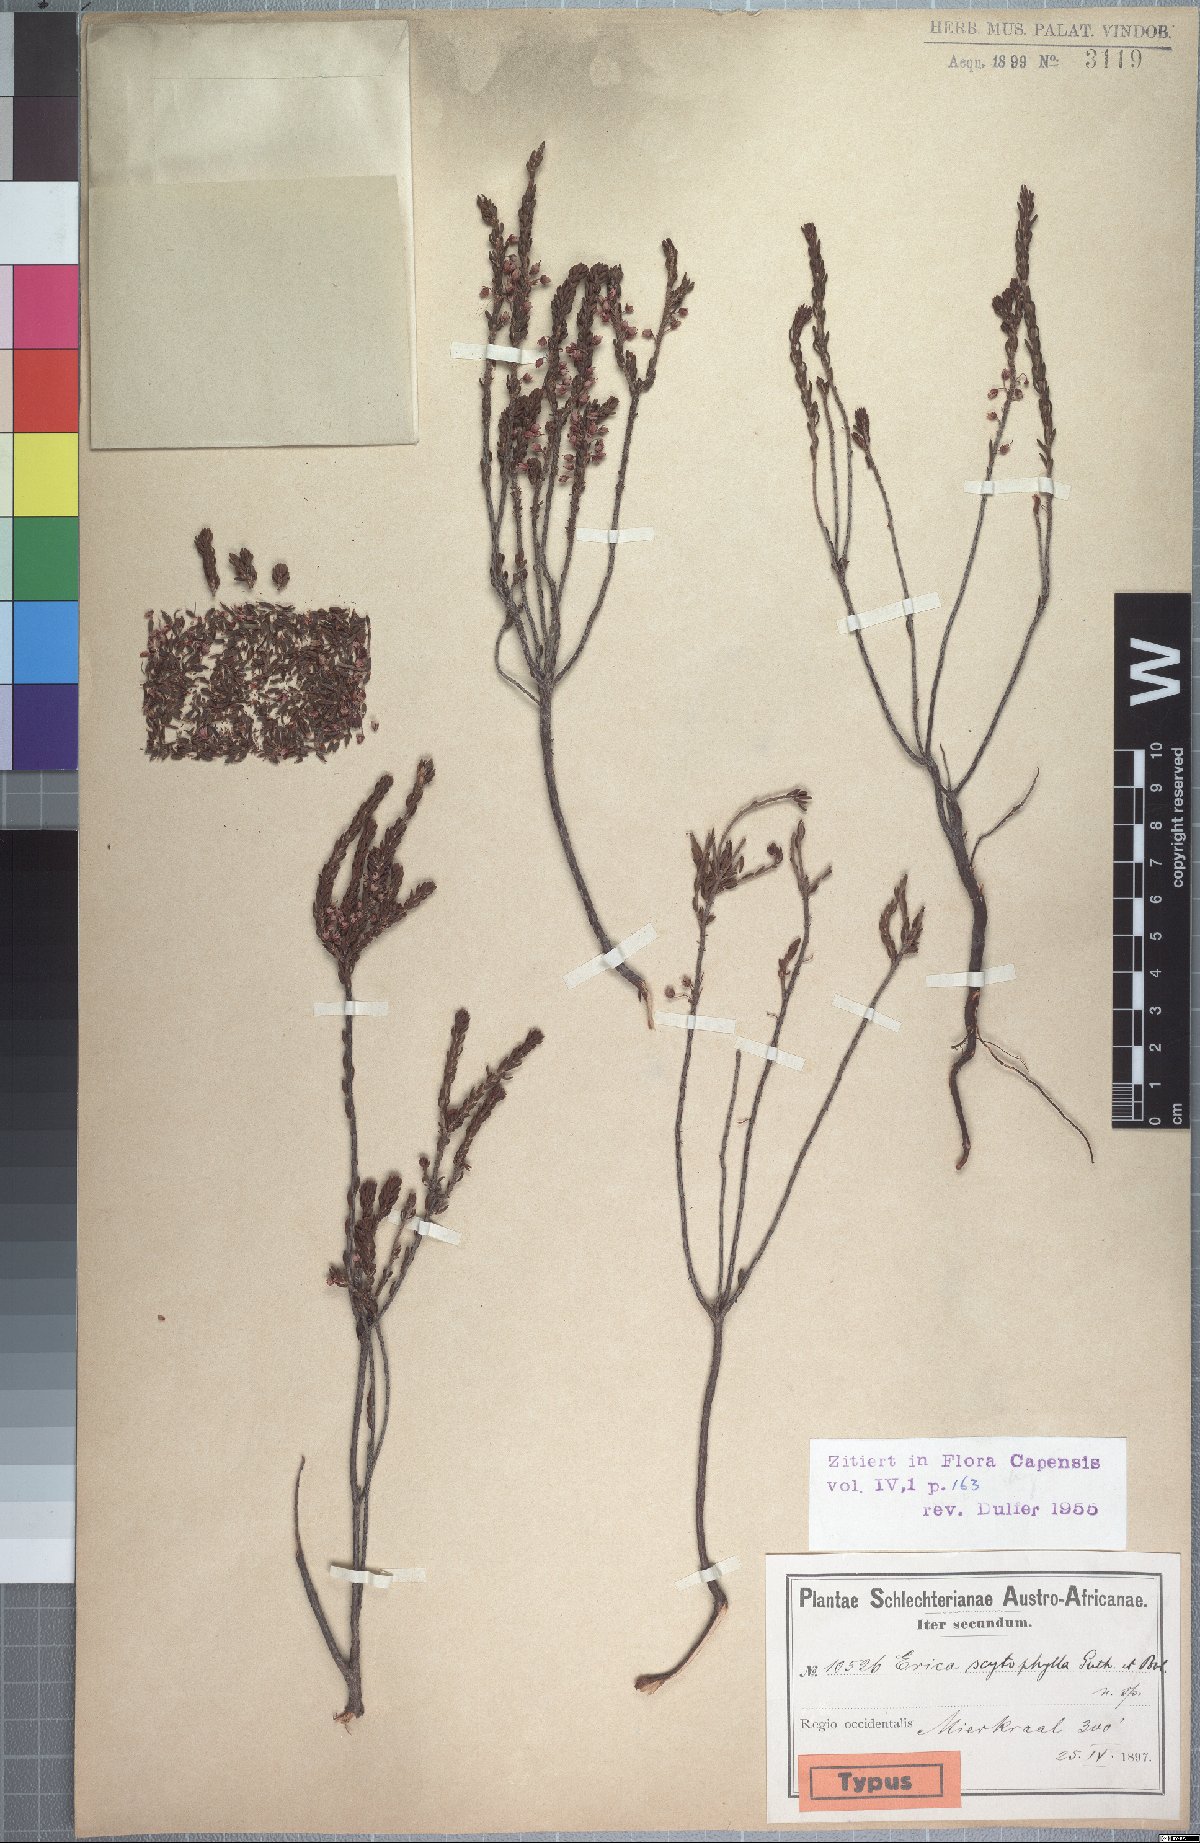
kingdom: Plantae
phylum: Tracheophyta
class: Magnoliopsida
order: Ericales
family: Ericaceae
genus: Erica
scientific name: Erica scytophylla
